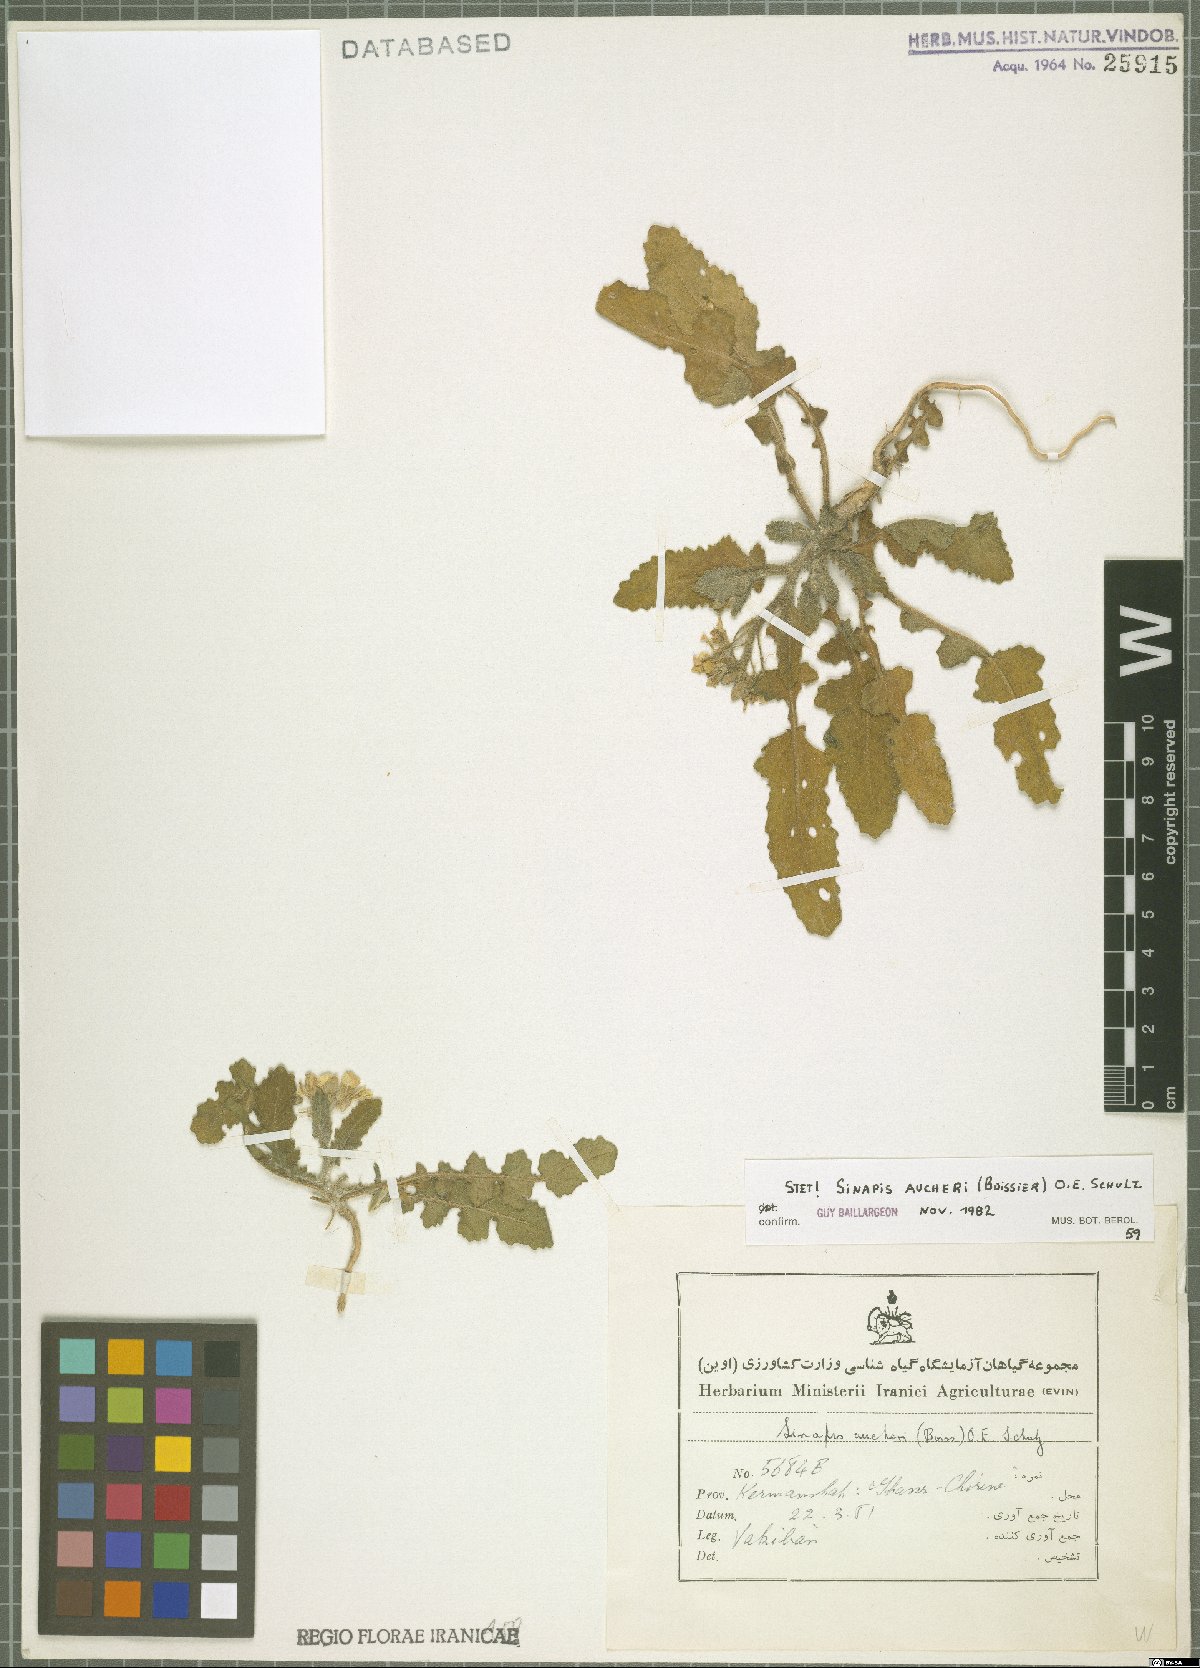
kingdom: Plantae
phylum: Tracheophyta
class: Magnoliopsida
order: Brassicales
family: Brassicaceae
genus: Brassica
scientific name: Brassica aucheri
